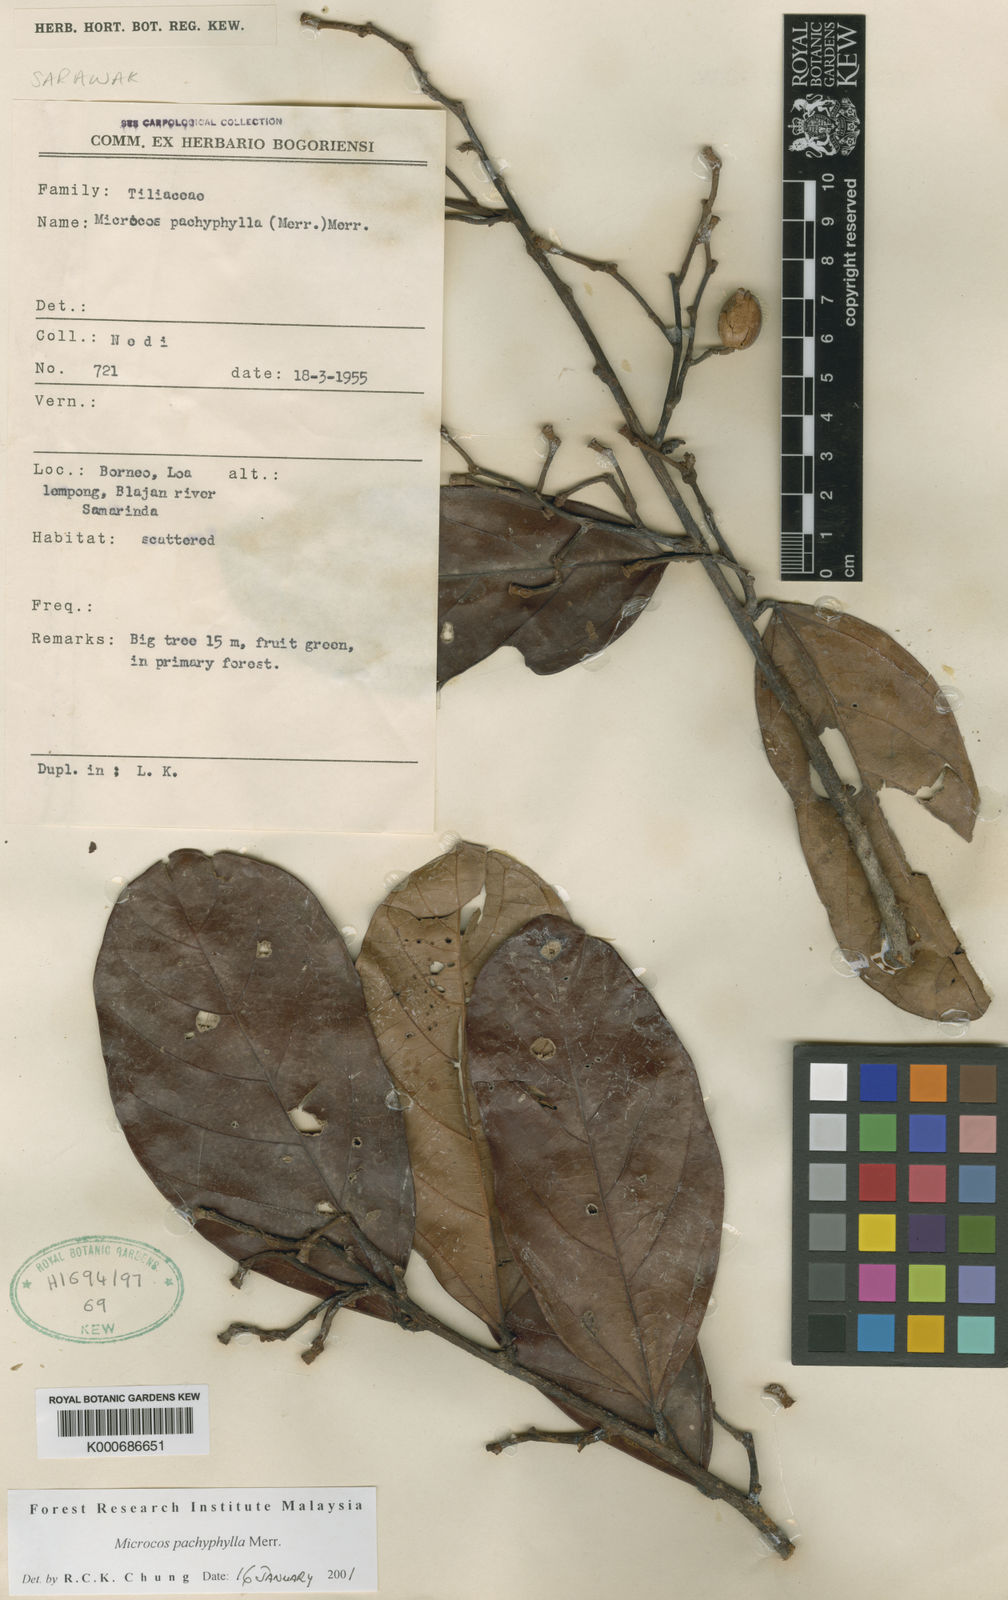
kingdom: Plantae
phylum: Tracheophyta
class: Magnoliopsida
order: Malvales
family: Malvaceae
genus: Microcos
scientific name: Microcos pachyphylla
